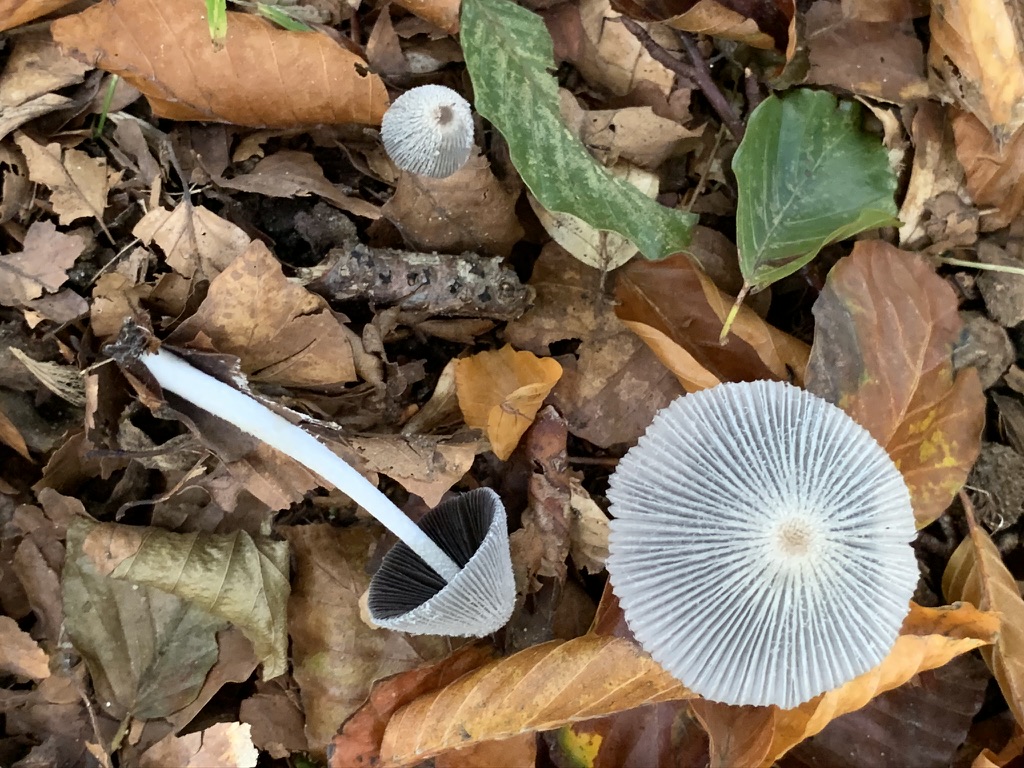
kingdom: Fungi
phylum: Basidiomycota
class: Agaricomycetes
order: Agaricales
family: Psathyrellaceae
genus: Coprinopsis
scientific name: Coprinopsis lagopus
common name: dunstokket blækhat
